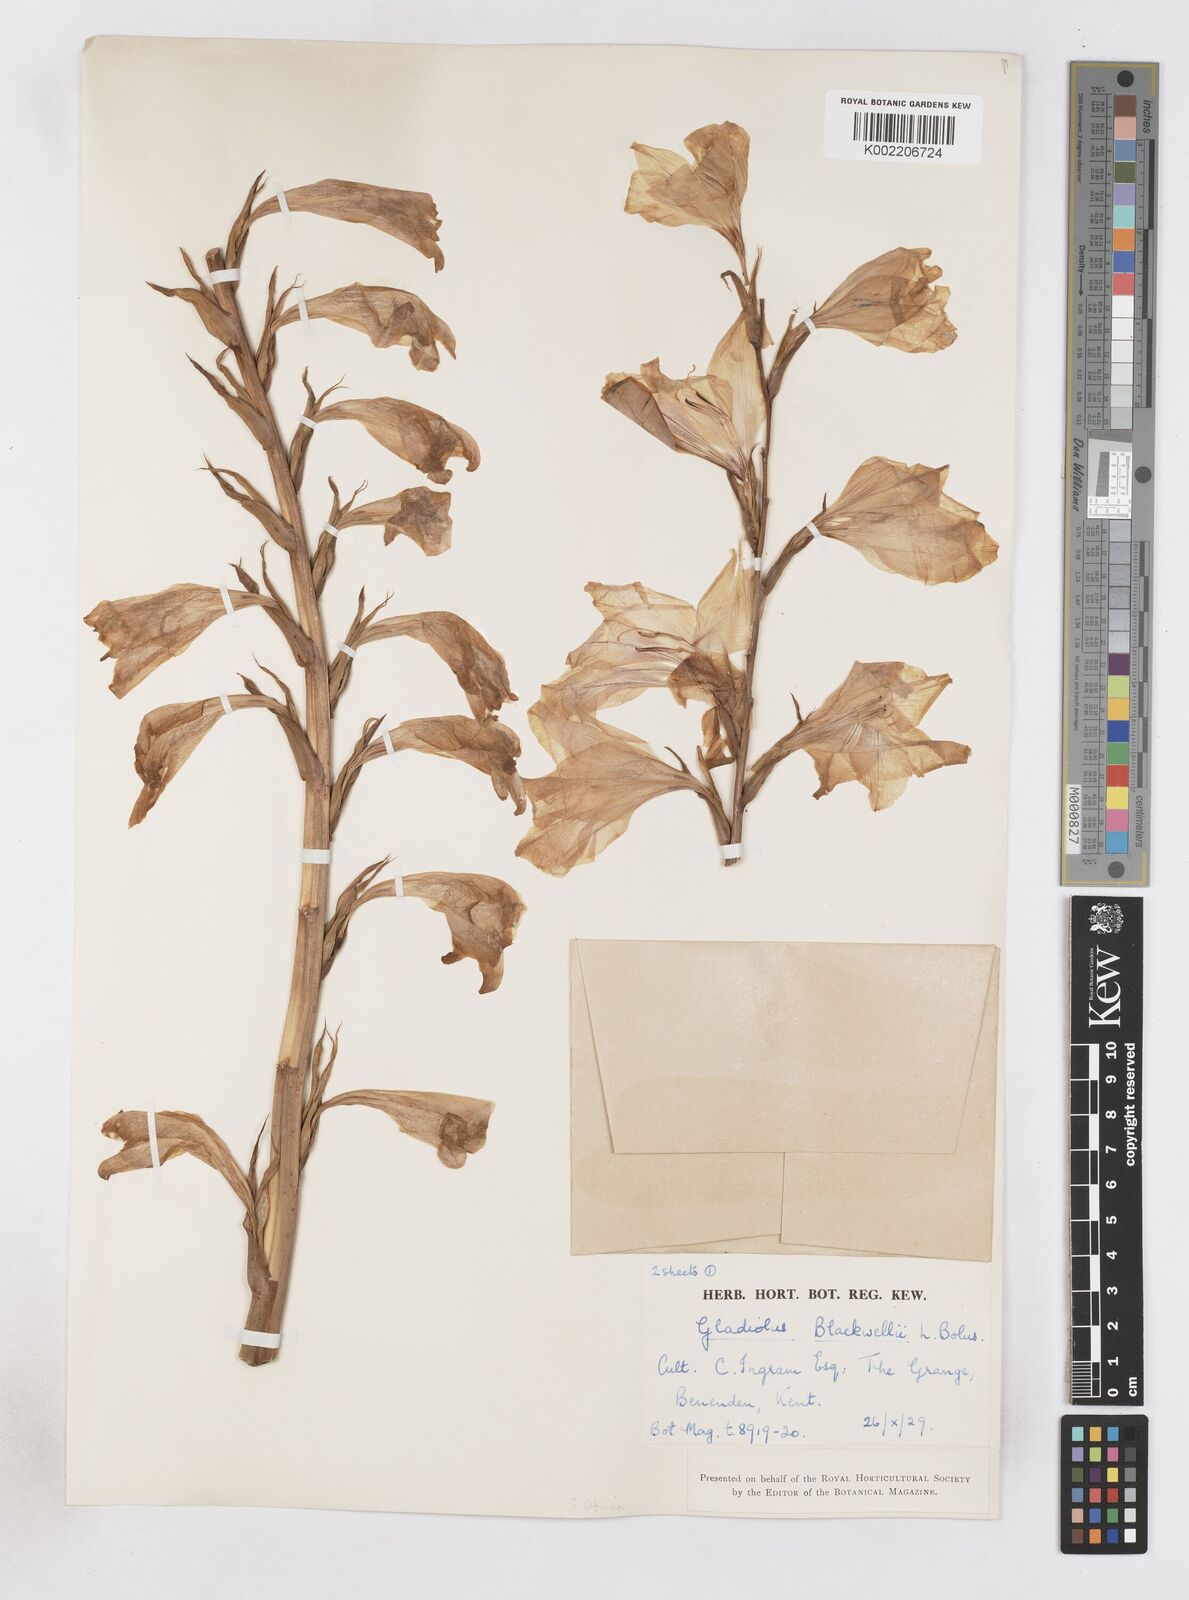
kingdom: Plantae
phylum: Tracheophyta
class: Liliopsida
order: Asparagales
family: Iridaceae
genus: Gladiolus
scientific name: Gladiolus oppositiflorus
